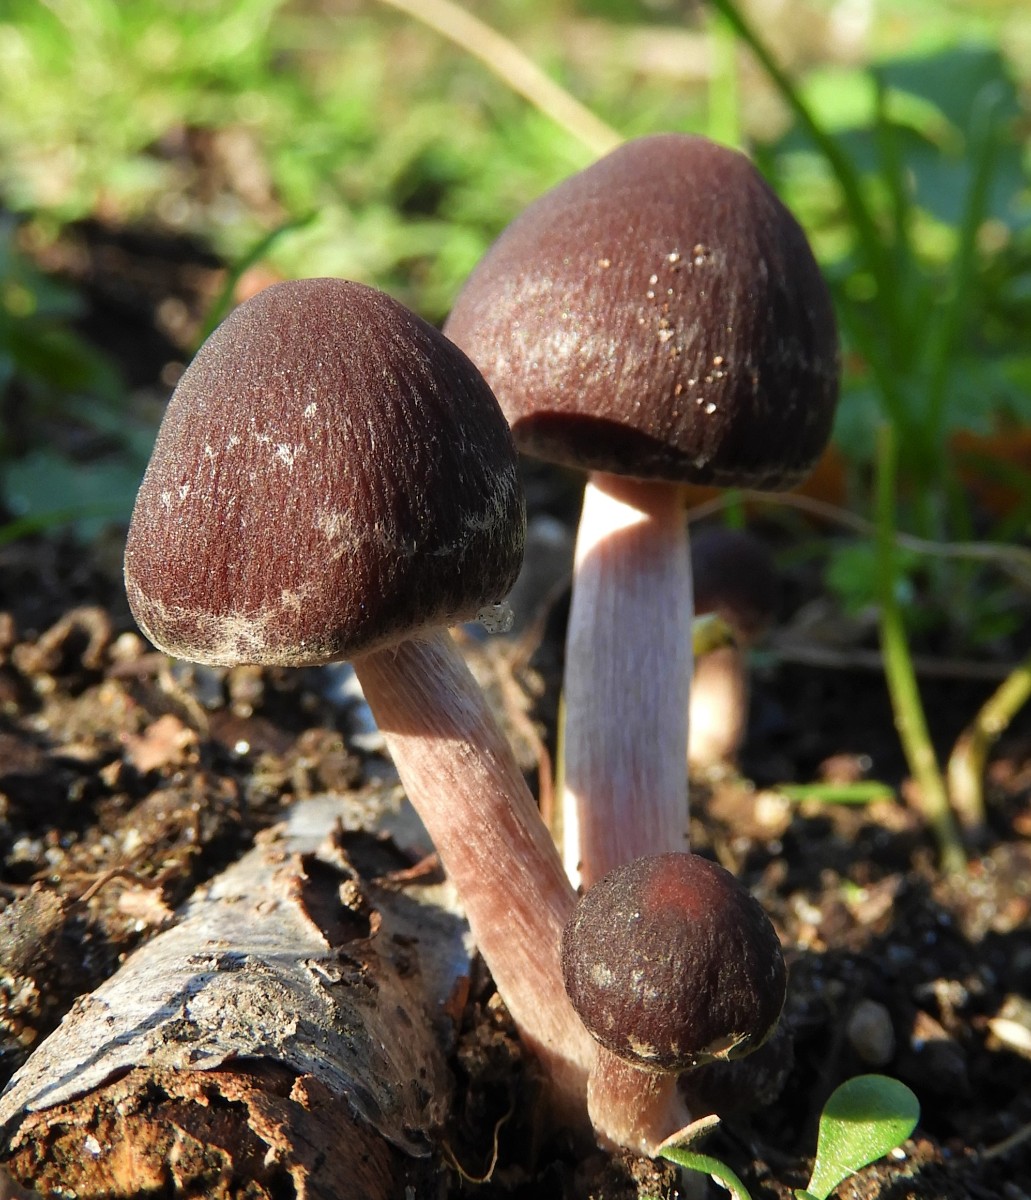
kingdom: Fungi
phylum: Basidiomycota
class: Agaricomycetes
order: Agaricales
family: Psathyrellaceae
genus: Psathyrella
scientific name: Psathyrella bipellis
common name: vinrød mørkhat
